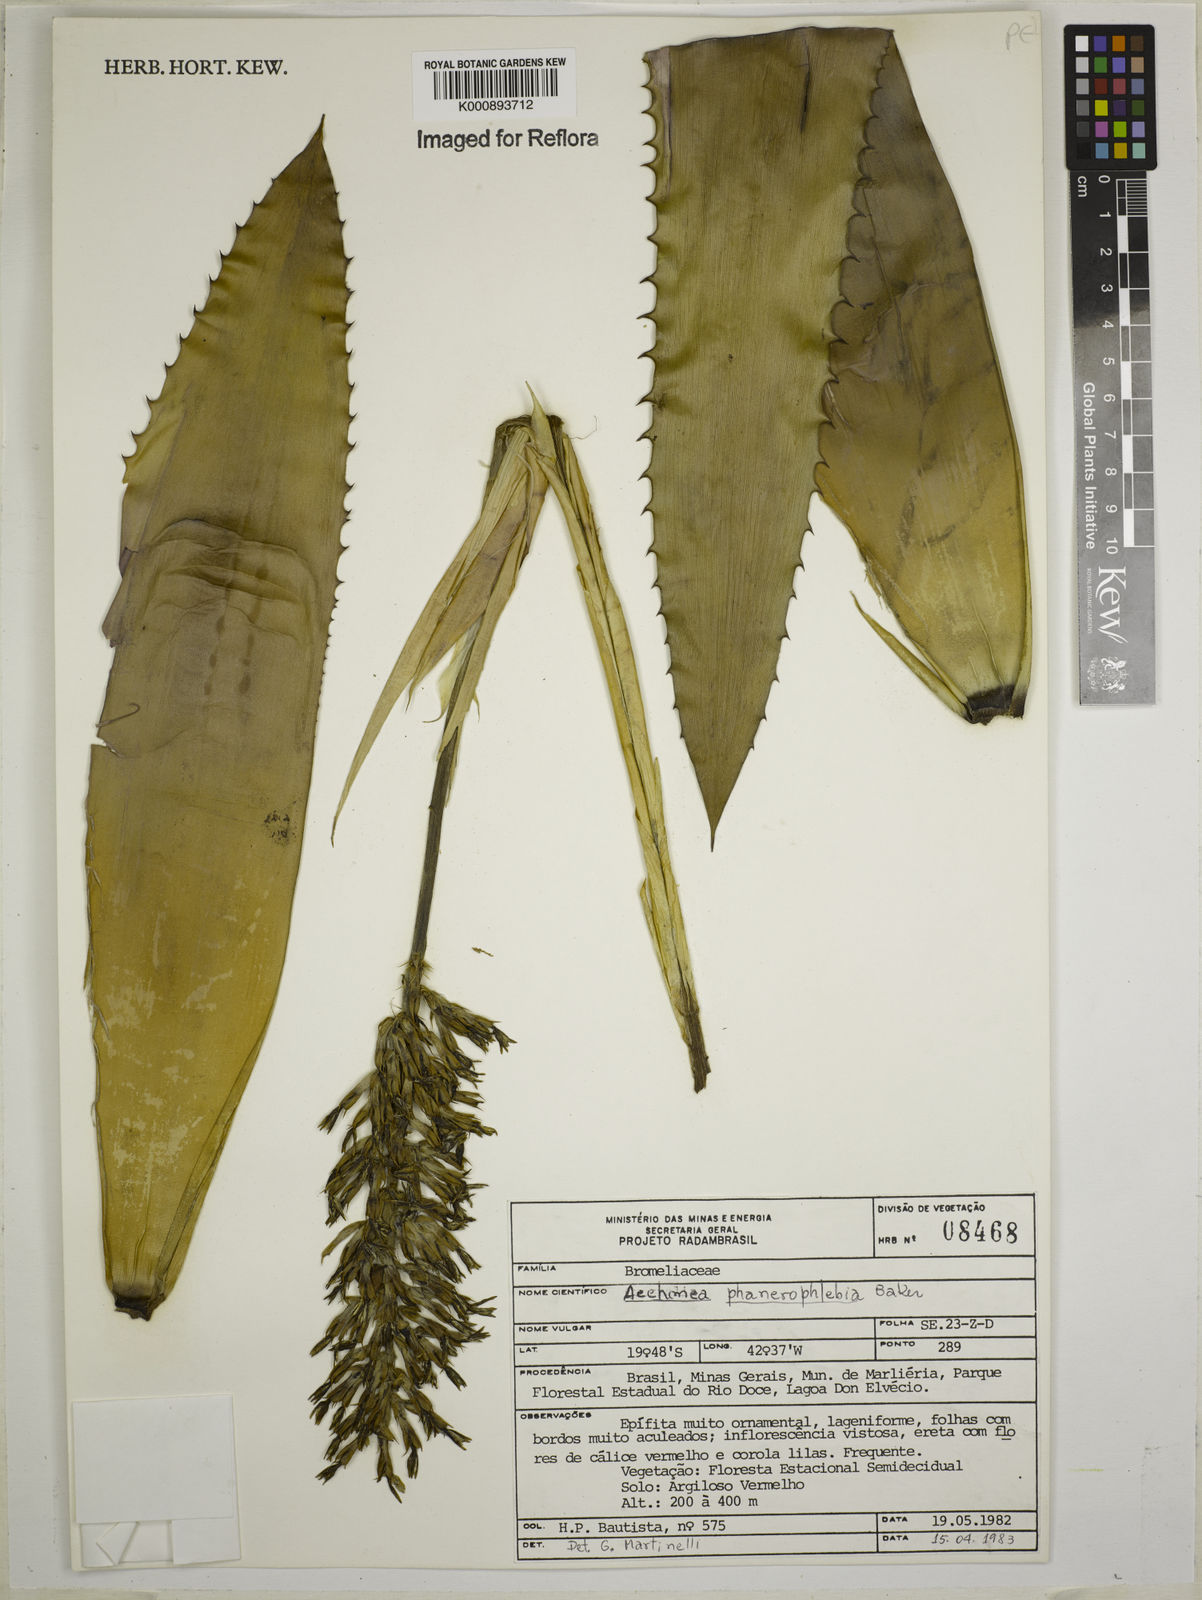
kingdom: Plantae
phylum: Tracheophyta
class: Liliopsida
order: Poales
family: Bromeliaceae
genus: Aechmea
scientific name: Aechmea phanerophlebia
